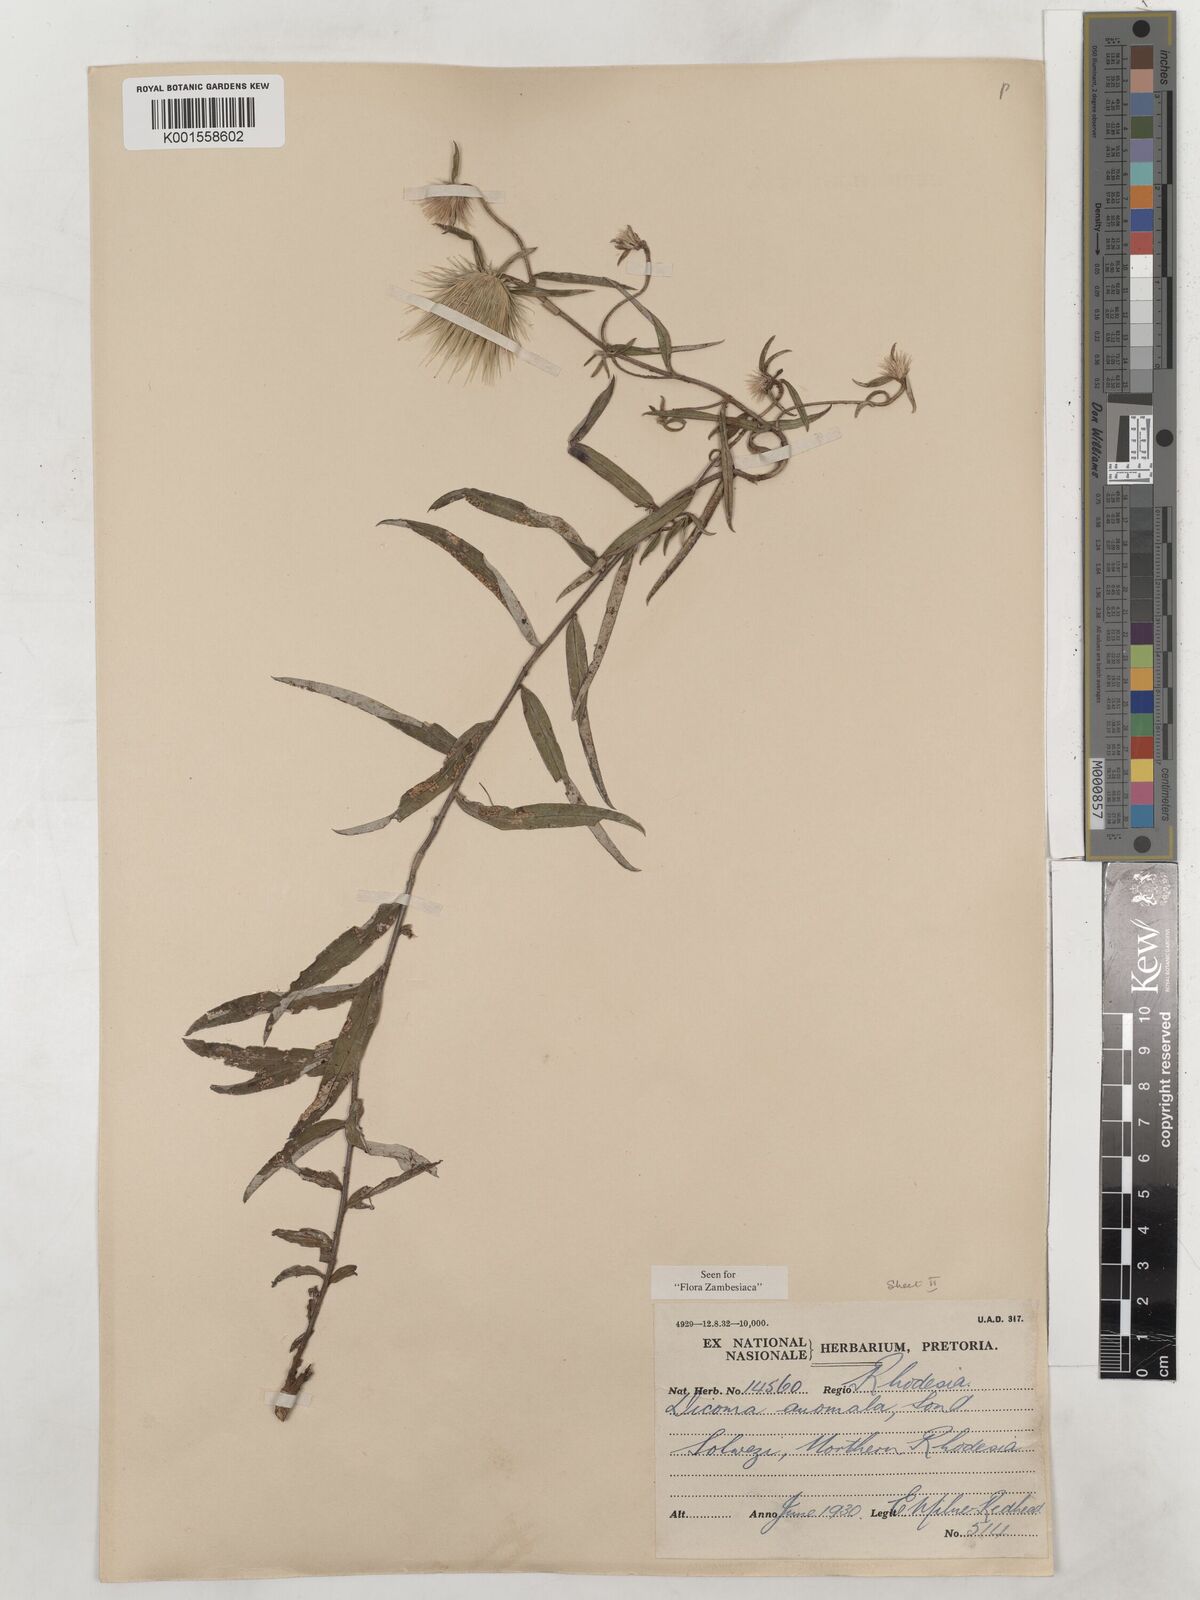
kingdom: Plantae
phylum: Tracheophyta
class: Magnoliopsida
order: Asterales
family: Asteraceae
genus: Dicoma
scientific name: Dicoma anomala
